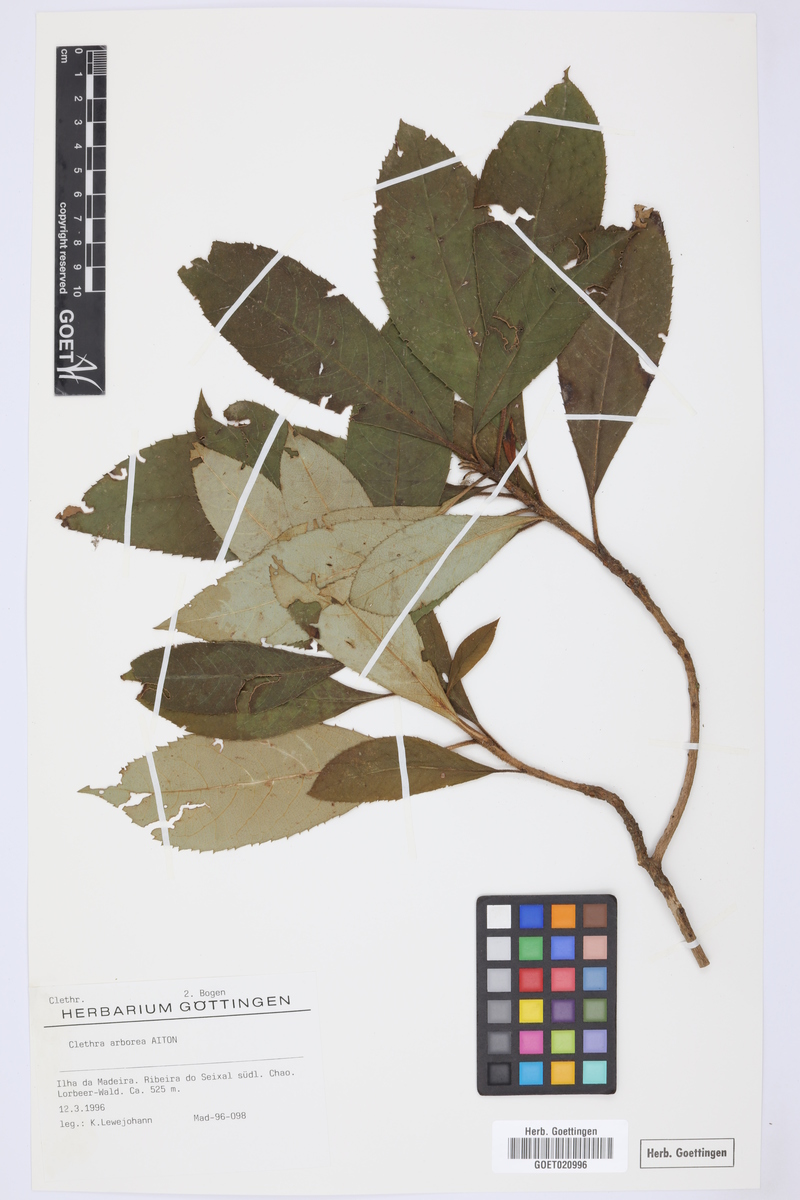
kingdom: Plantae
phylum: Tracheophyta
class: Magnoliopsida
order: Ericales
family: Clethraceae
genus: Clethra
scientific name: Clethra arborea
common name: Lily-of-the-valley-tree
